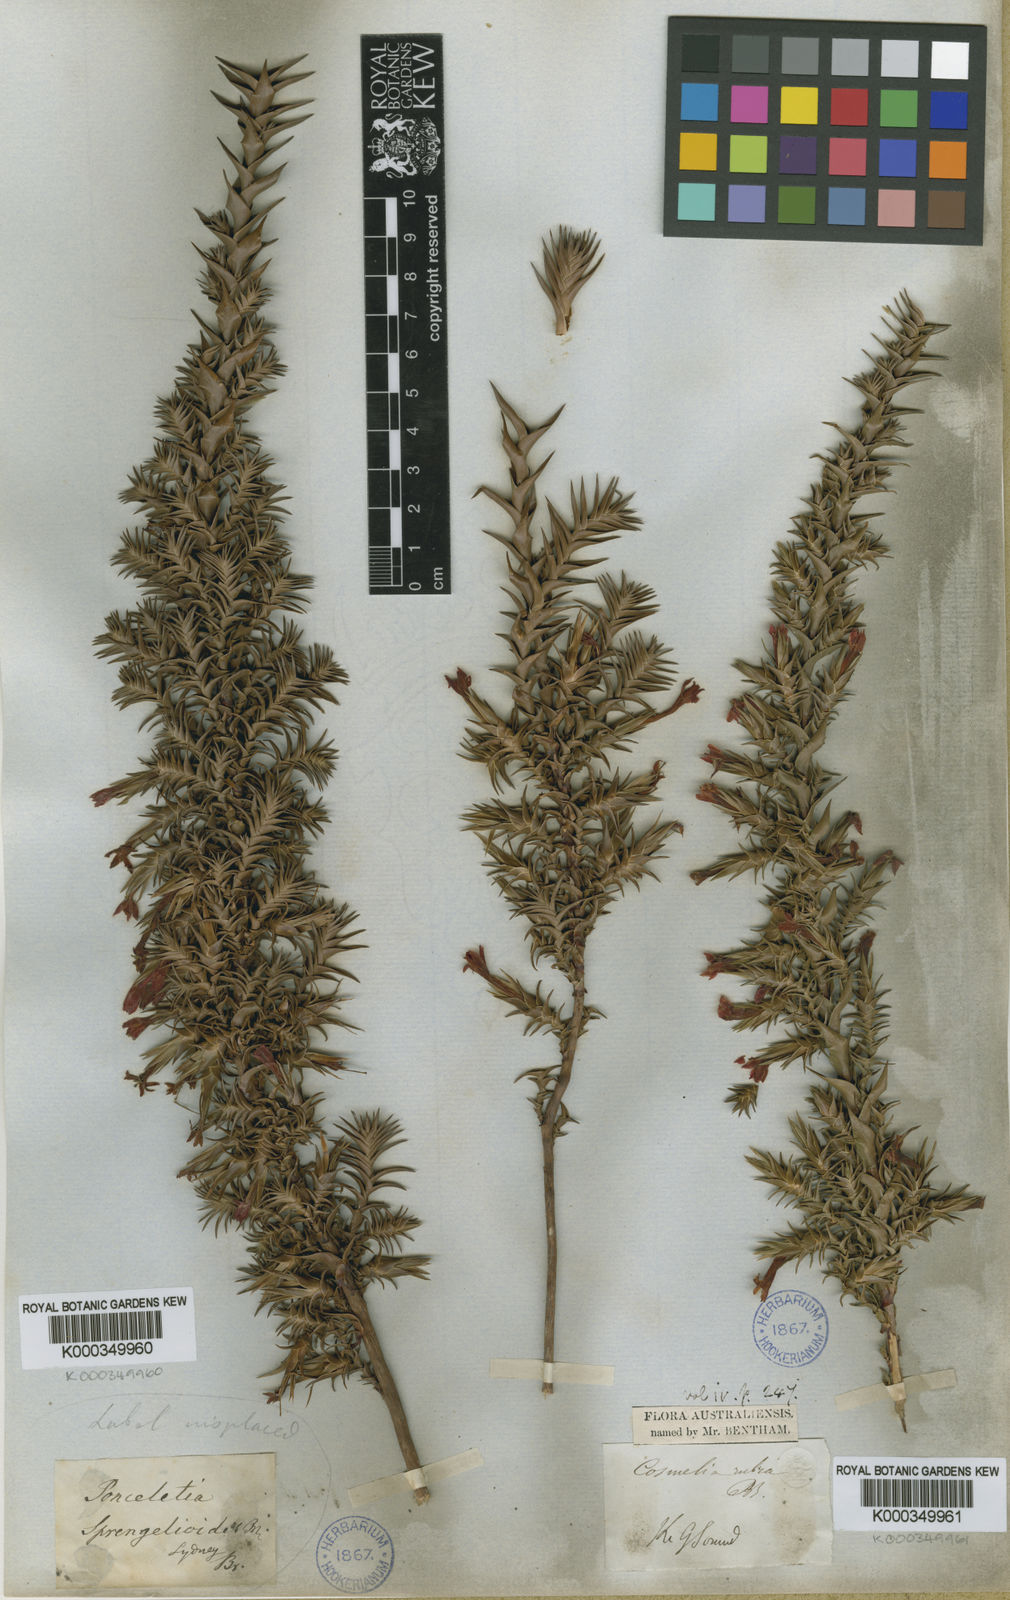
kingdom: Plantae
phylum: Tracheophyta
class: Magnoliopsida
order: Ericales
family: Ericaceae
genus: Sprengelia
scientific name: Sprengelia sprengelioides
